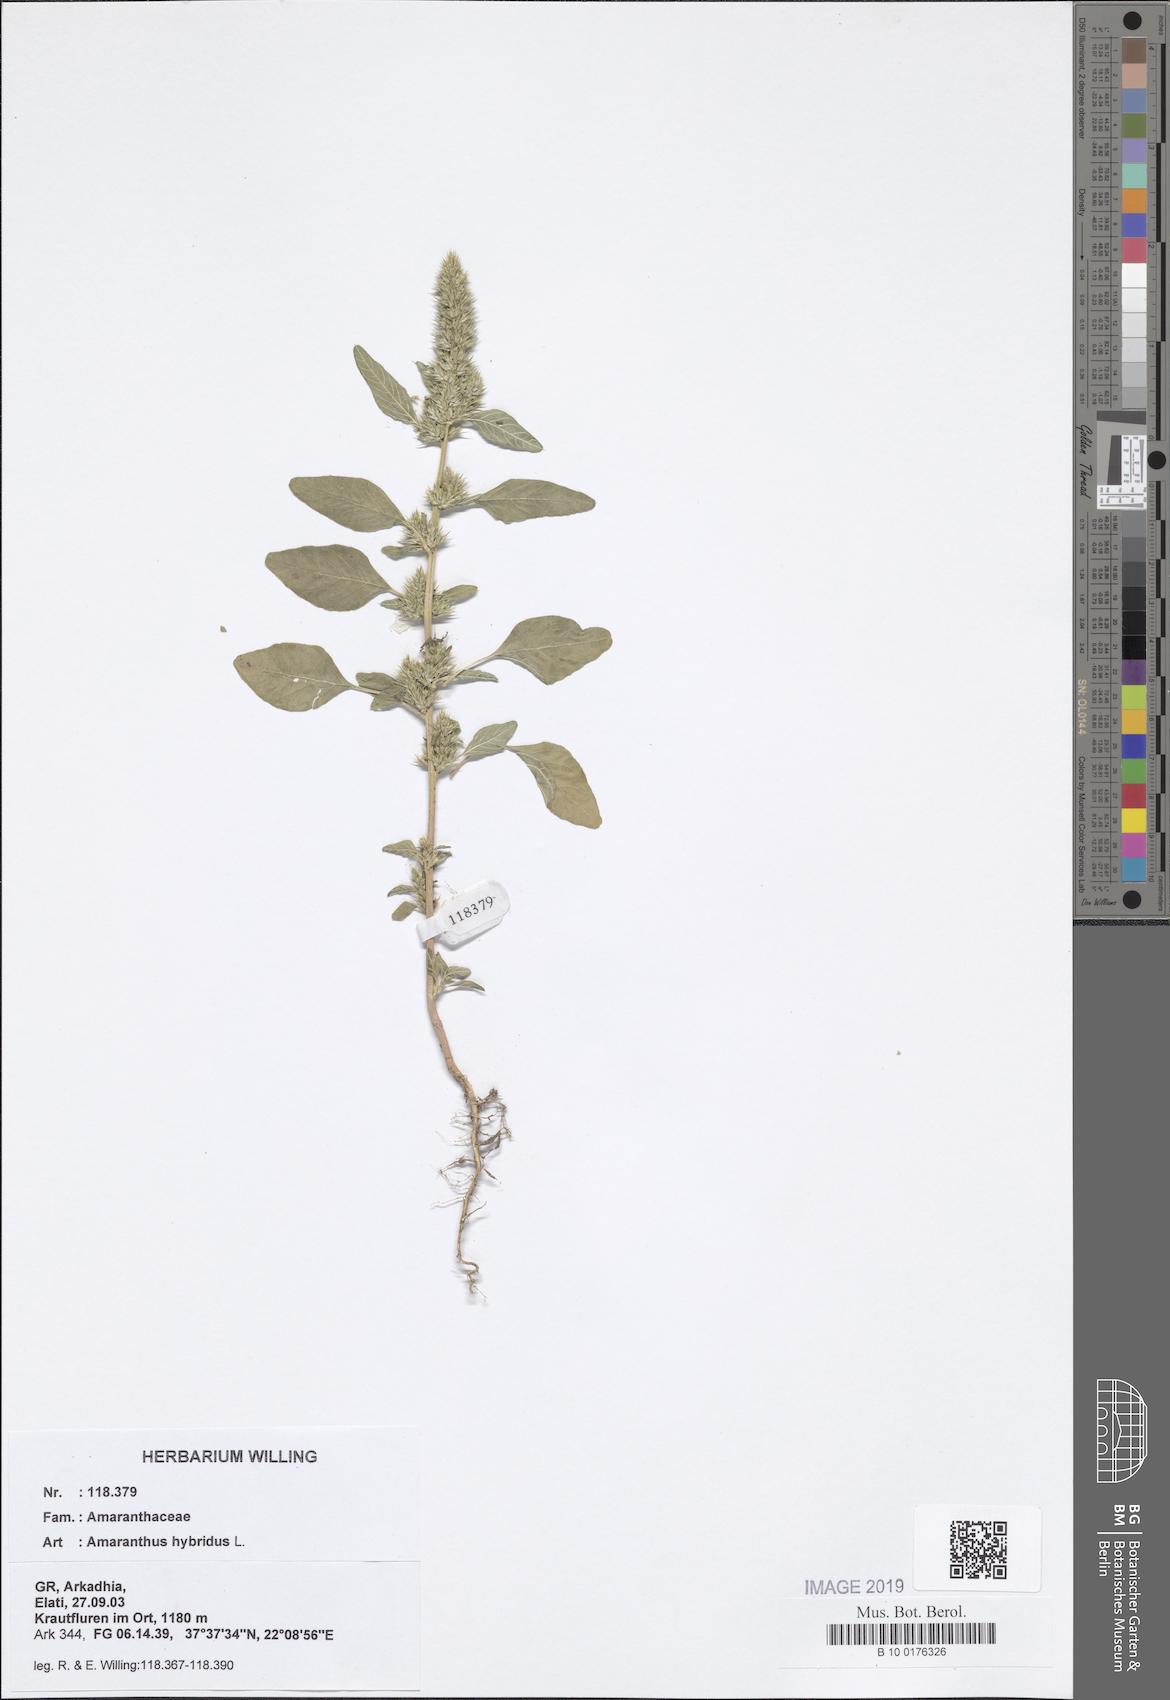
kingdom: Plantae
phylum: Tracheophyta
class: Magnoliopsida
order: Caryophyllales
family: Amaranthaceae
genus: Amaranthus
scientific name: Amaranthus hybridus
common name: Green amaranth
